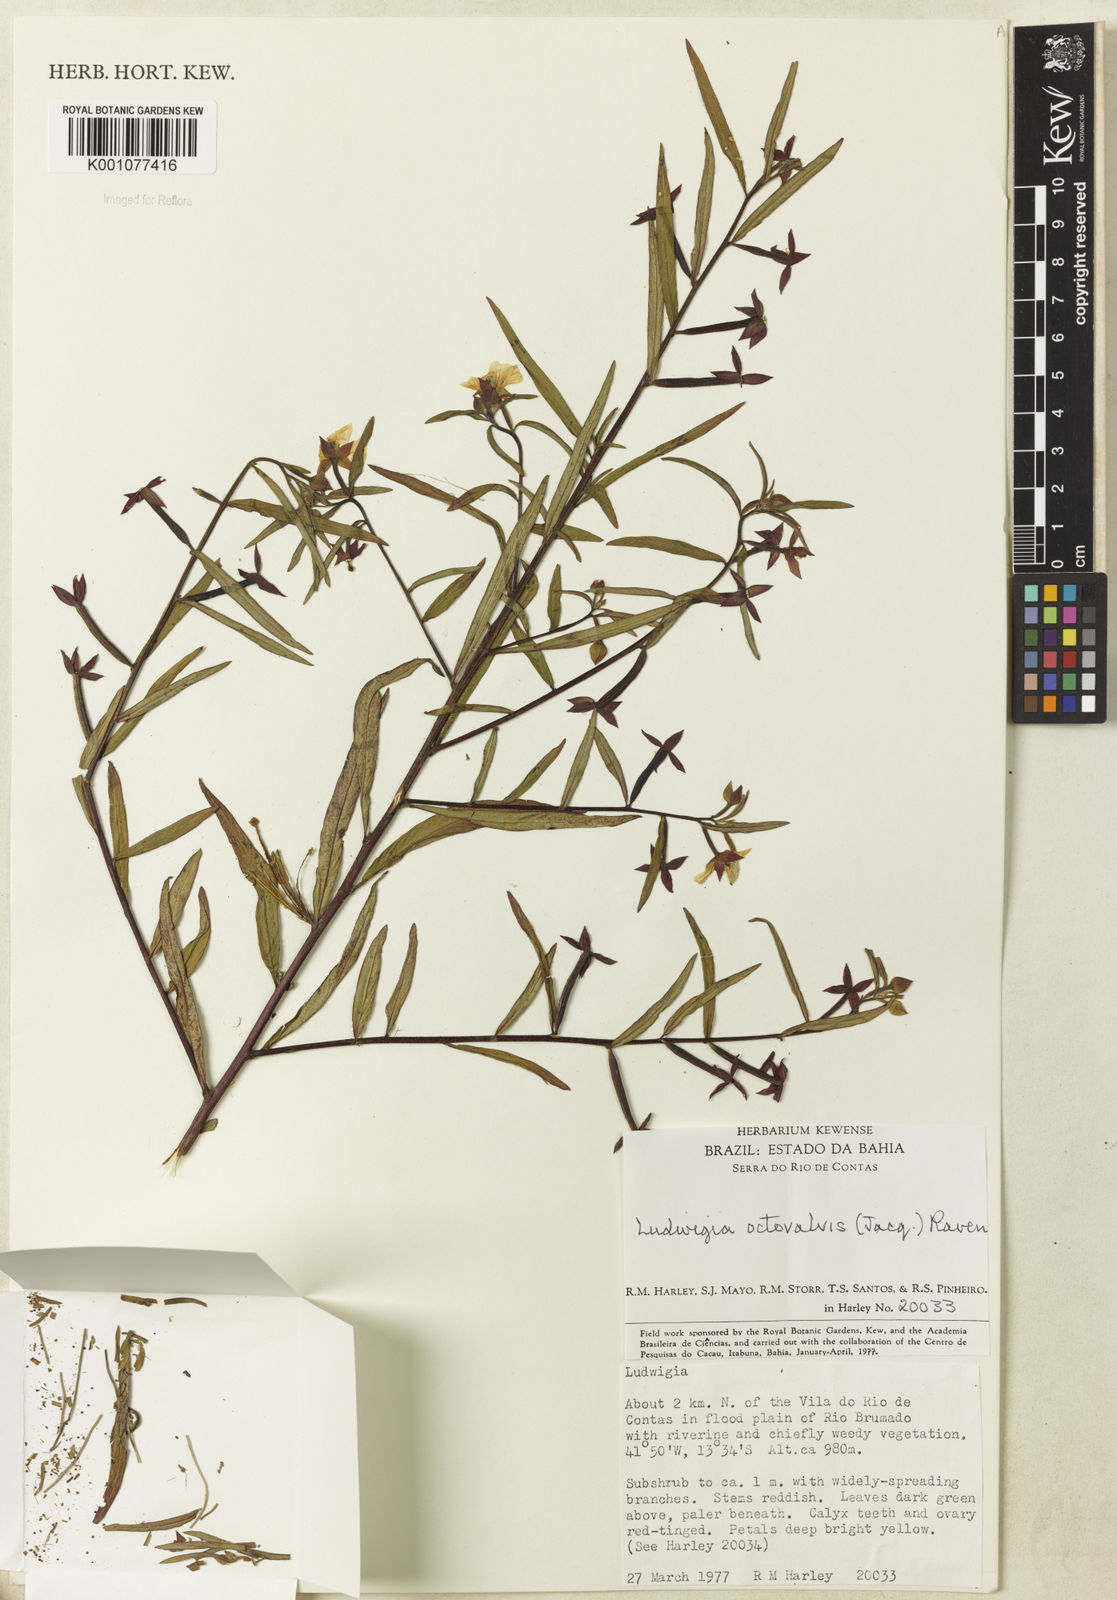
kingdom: Plantae
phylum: Tracheophyta
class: Magnoliopsida
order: Myrtales
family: Onagraceae
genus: Ludwigia
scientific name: Ludwigia octovalvis
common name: Water-primrose
